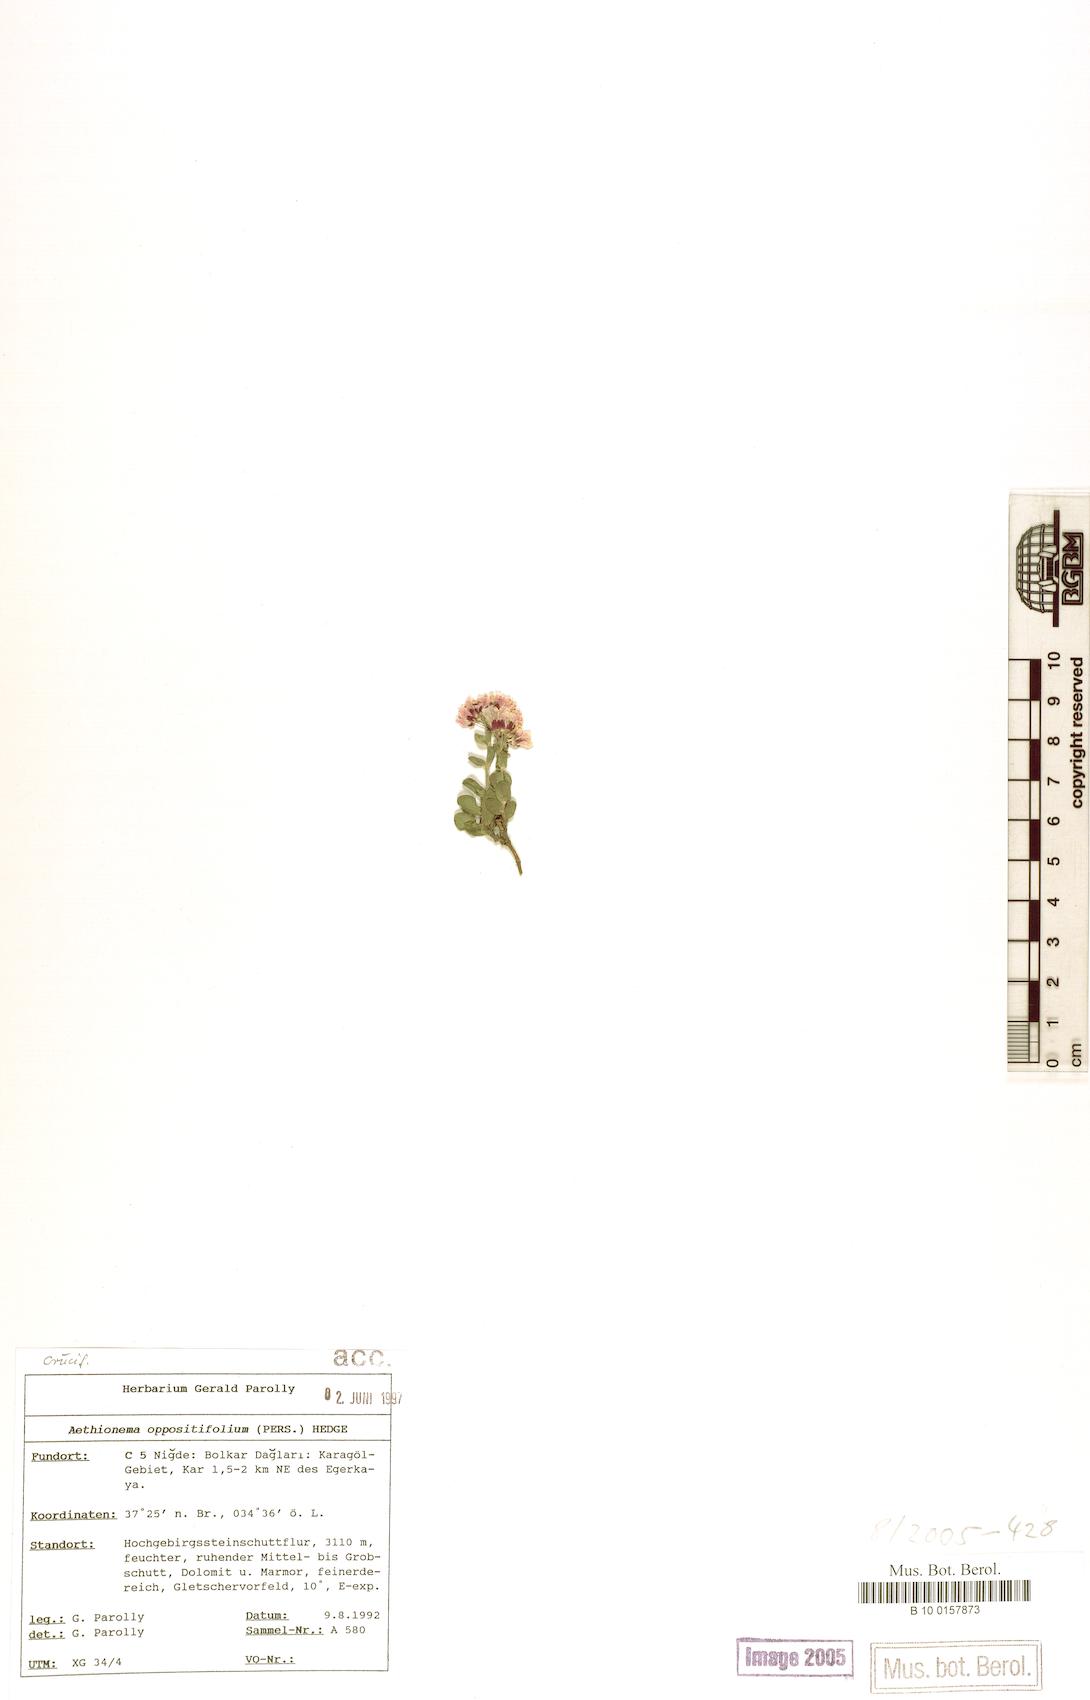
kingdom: Plantae
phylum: Tracheophyta
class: Magnoliopsida
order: Brassicales
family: Brassicaceae
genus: Noccaea
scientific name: Noccaea oppositifolia
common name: Twin-leaf stone-cress
